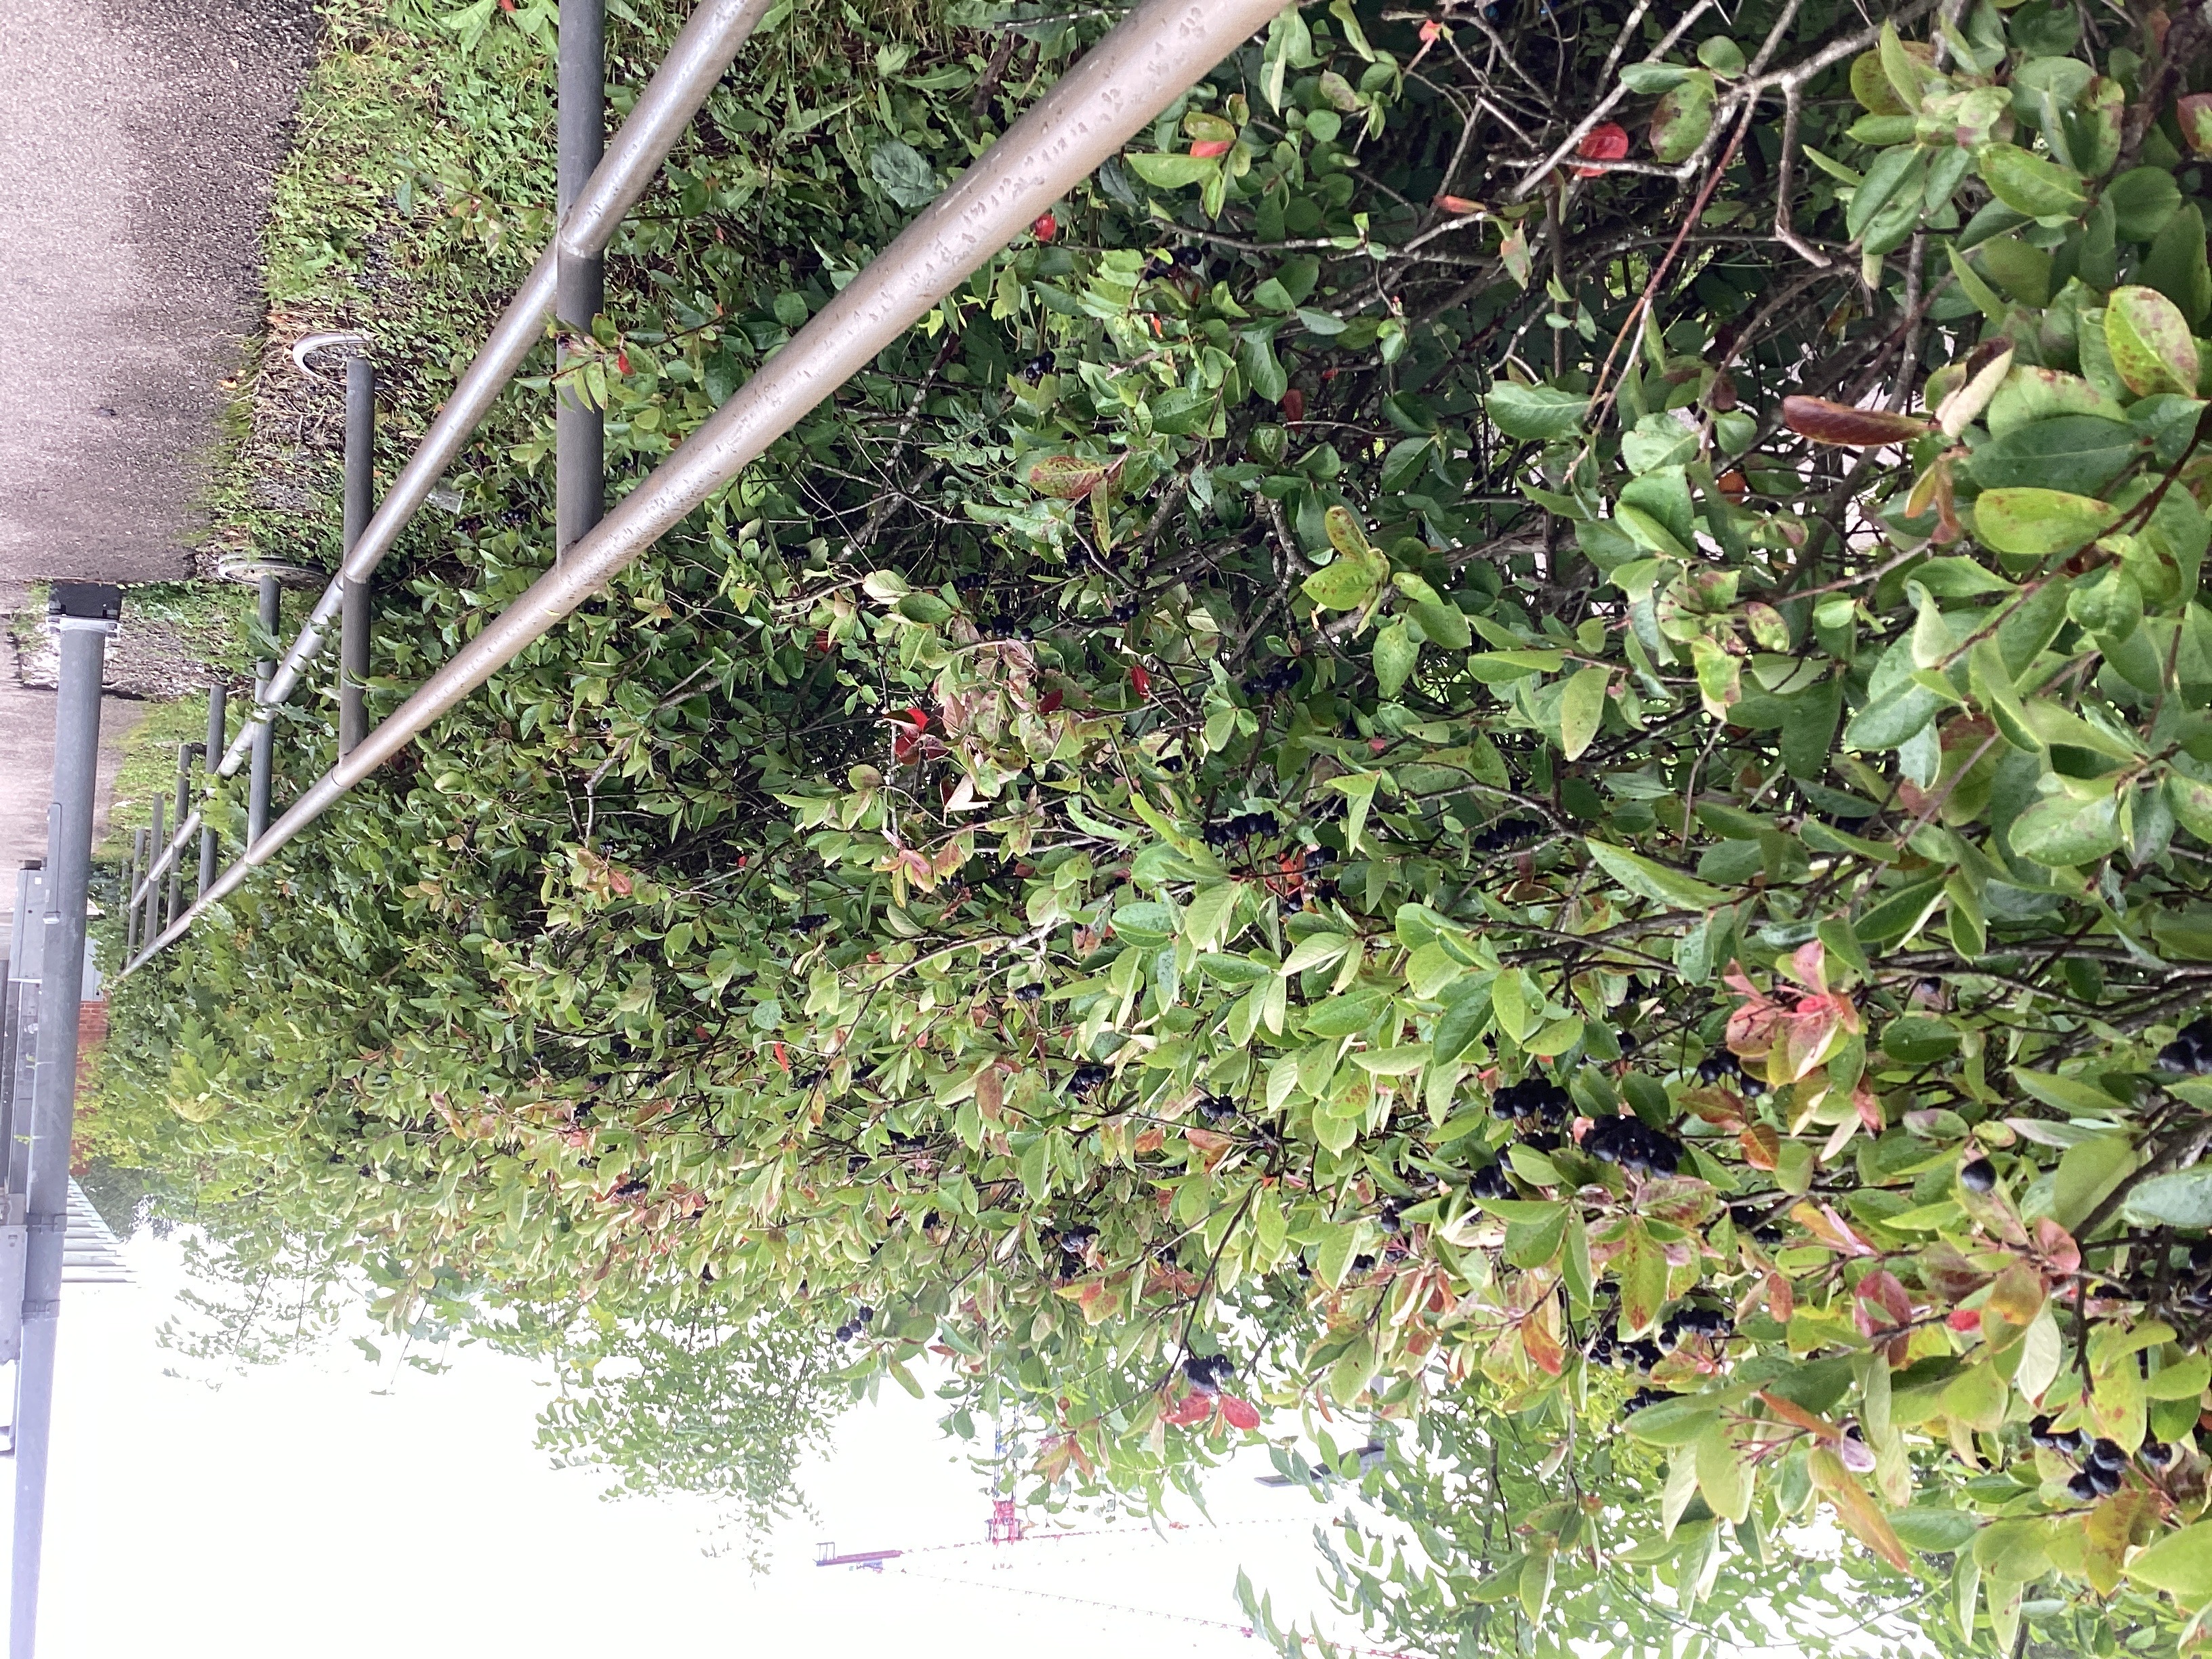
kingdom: Plantae
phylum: Tracheophyta
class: Magnoliopsida
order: Rosales
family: Rosaceae
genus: Aronia
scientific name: Aronia melanocarpa
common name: svartsurbær
